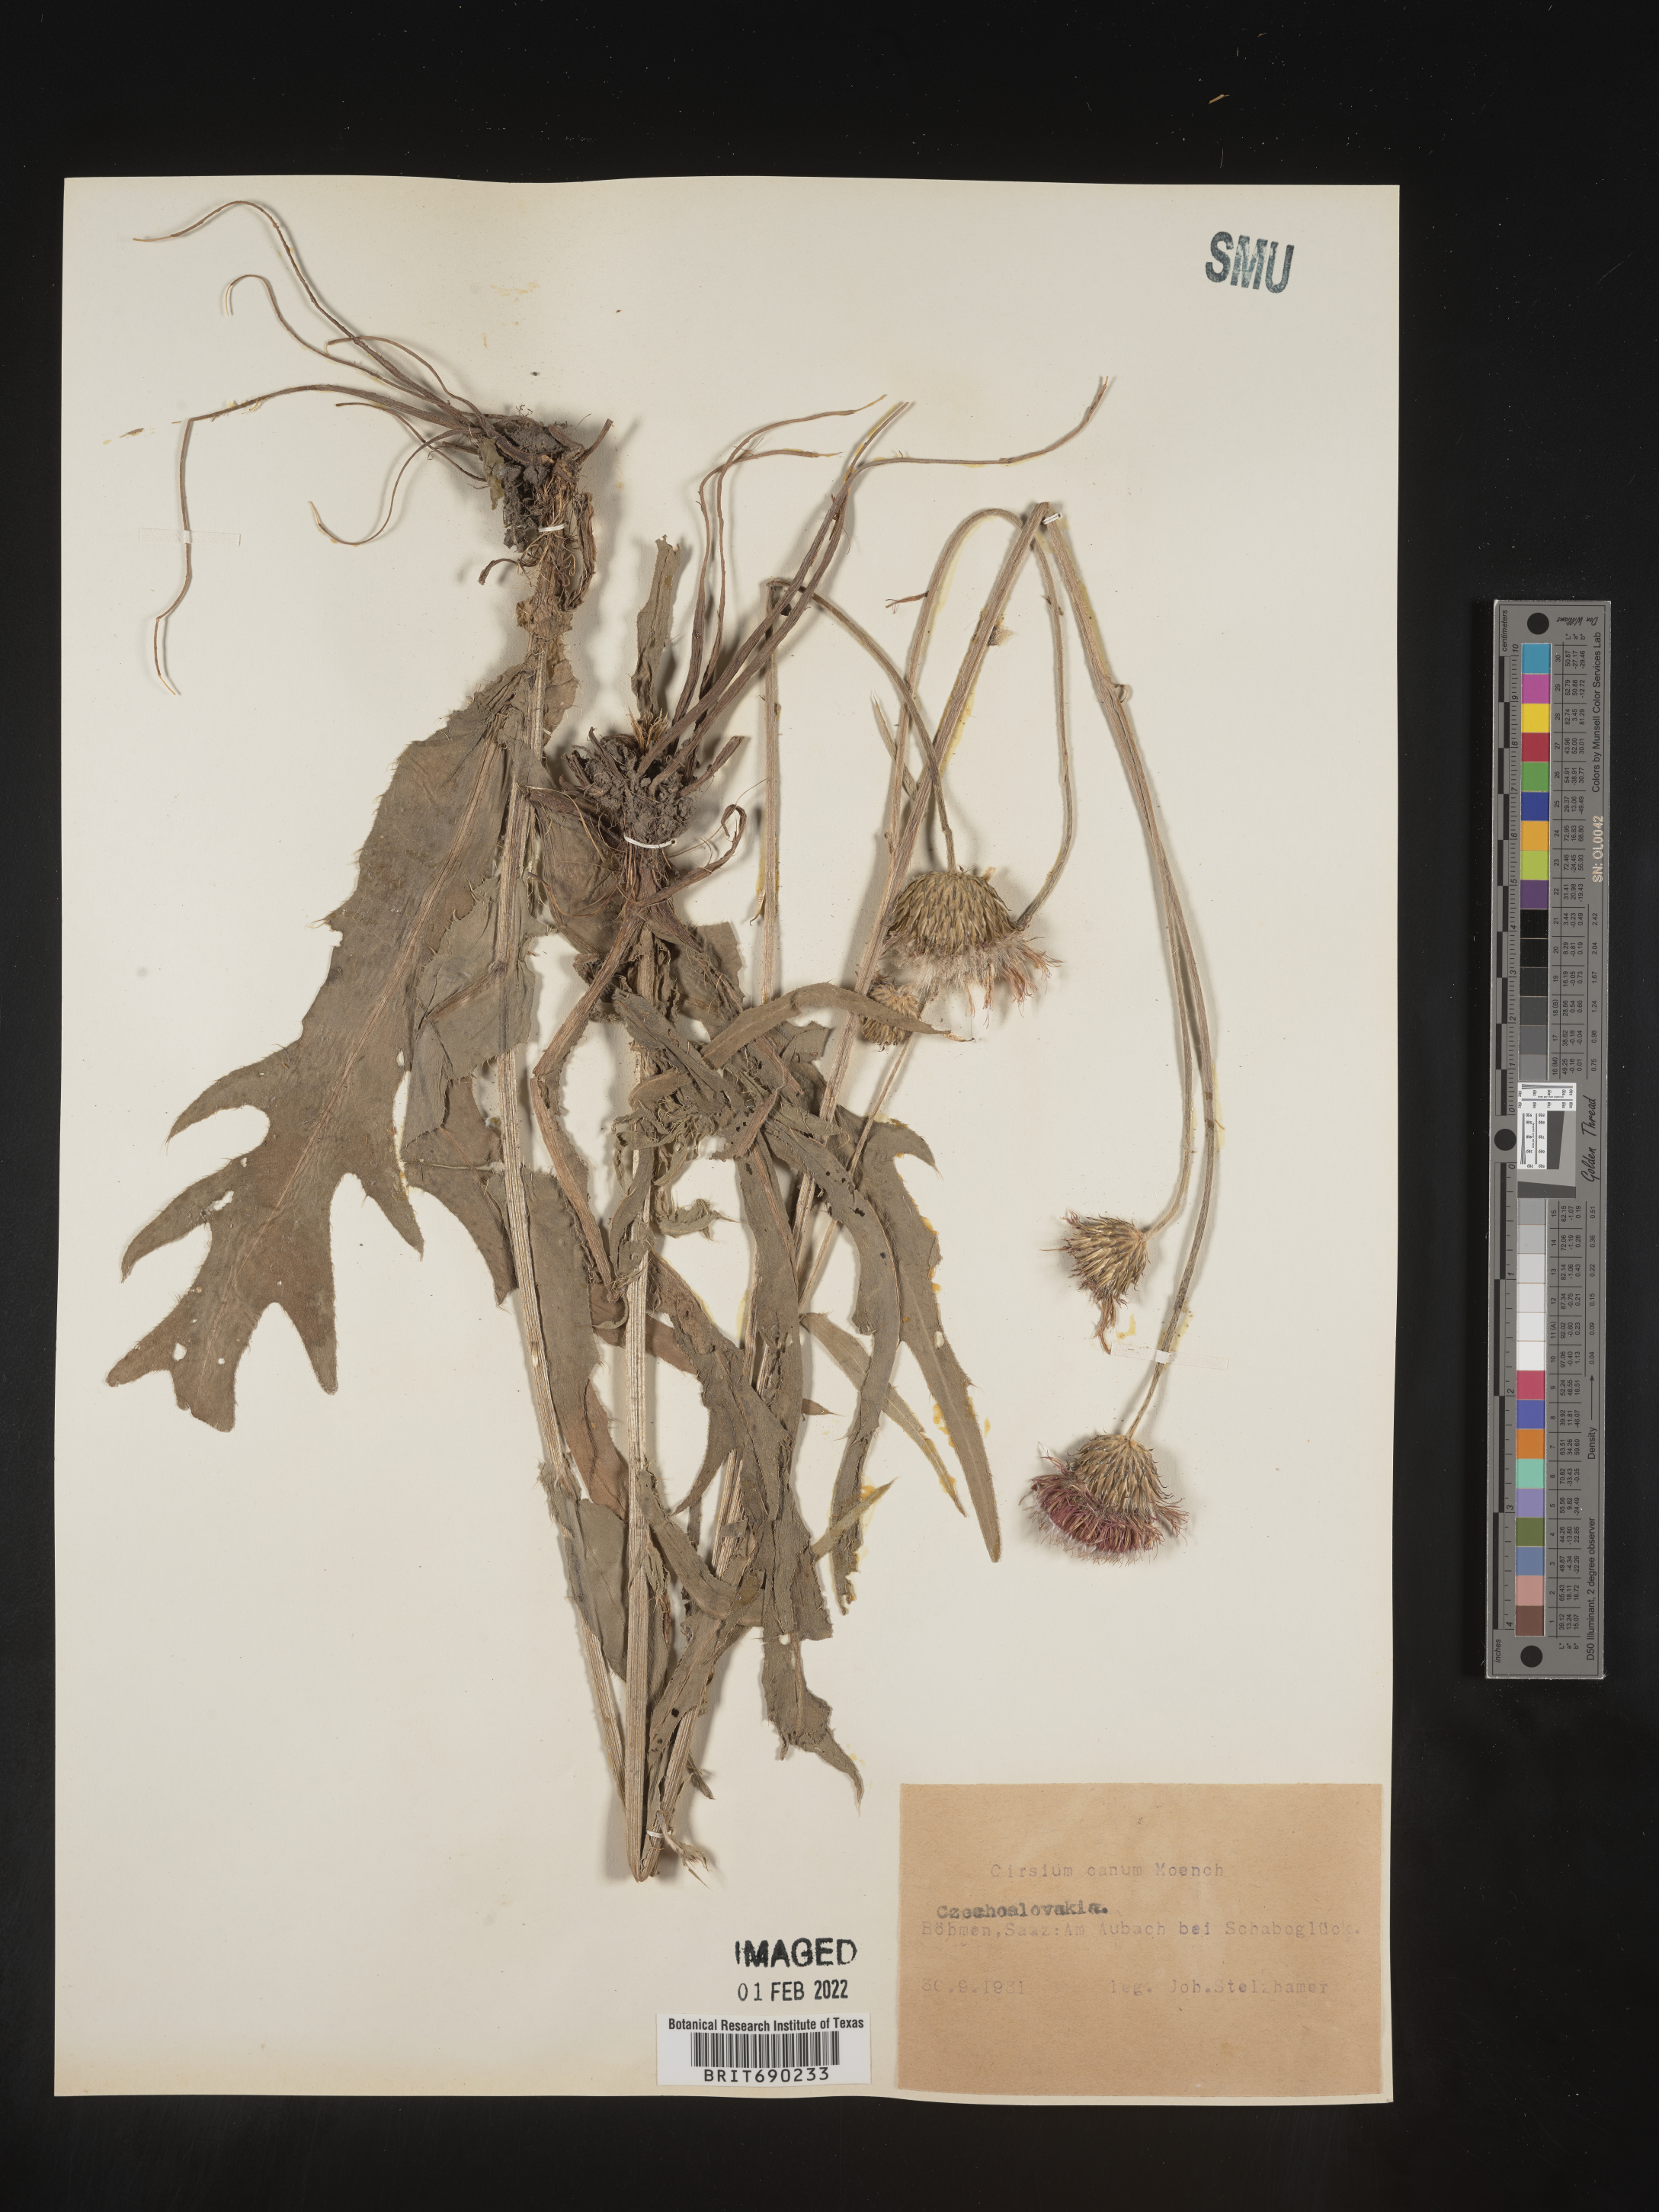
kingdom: Plantae
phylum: Tracheophyta
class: Magnoliopsida
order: Asterales
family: Asteraceae
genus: Cirsium
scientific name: Cirsium
